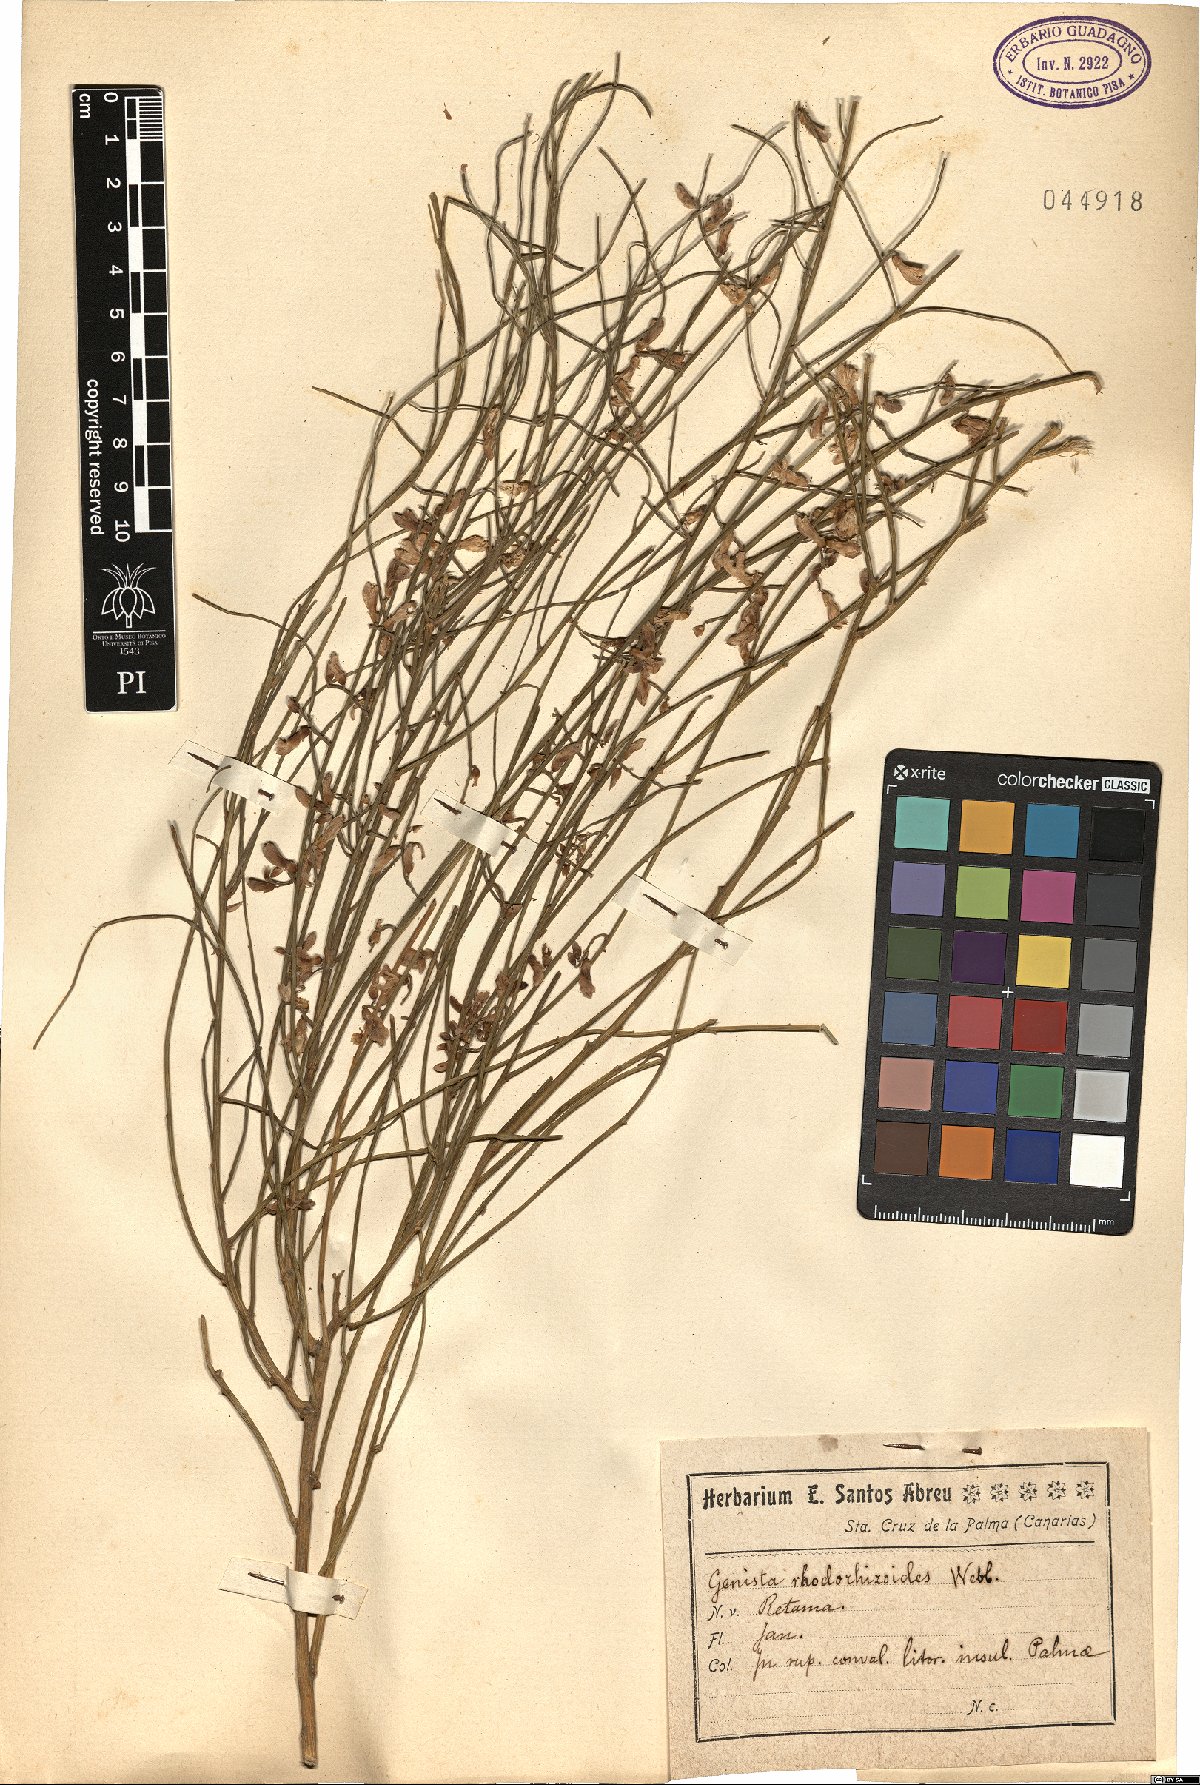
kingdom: Plantae
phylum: Tracheophyta
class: Magnoliopsida
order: Fabales
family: Fabaceae
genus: Retama
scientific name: Retama rhodorhizoides
